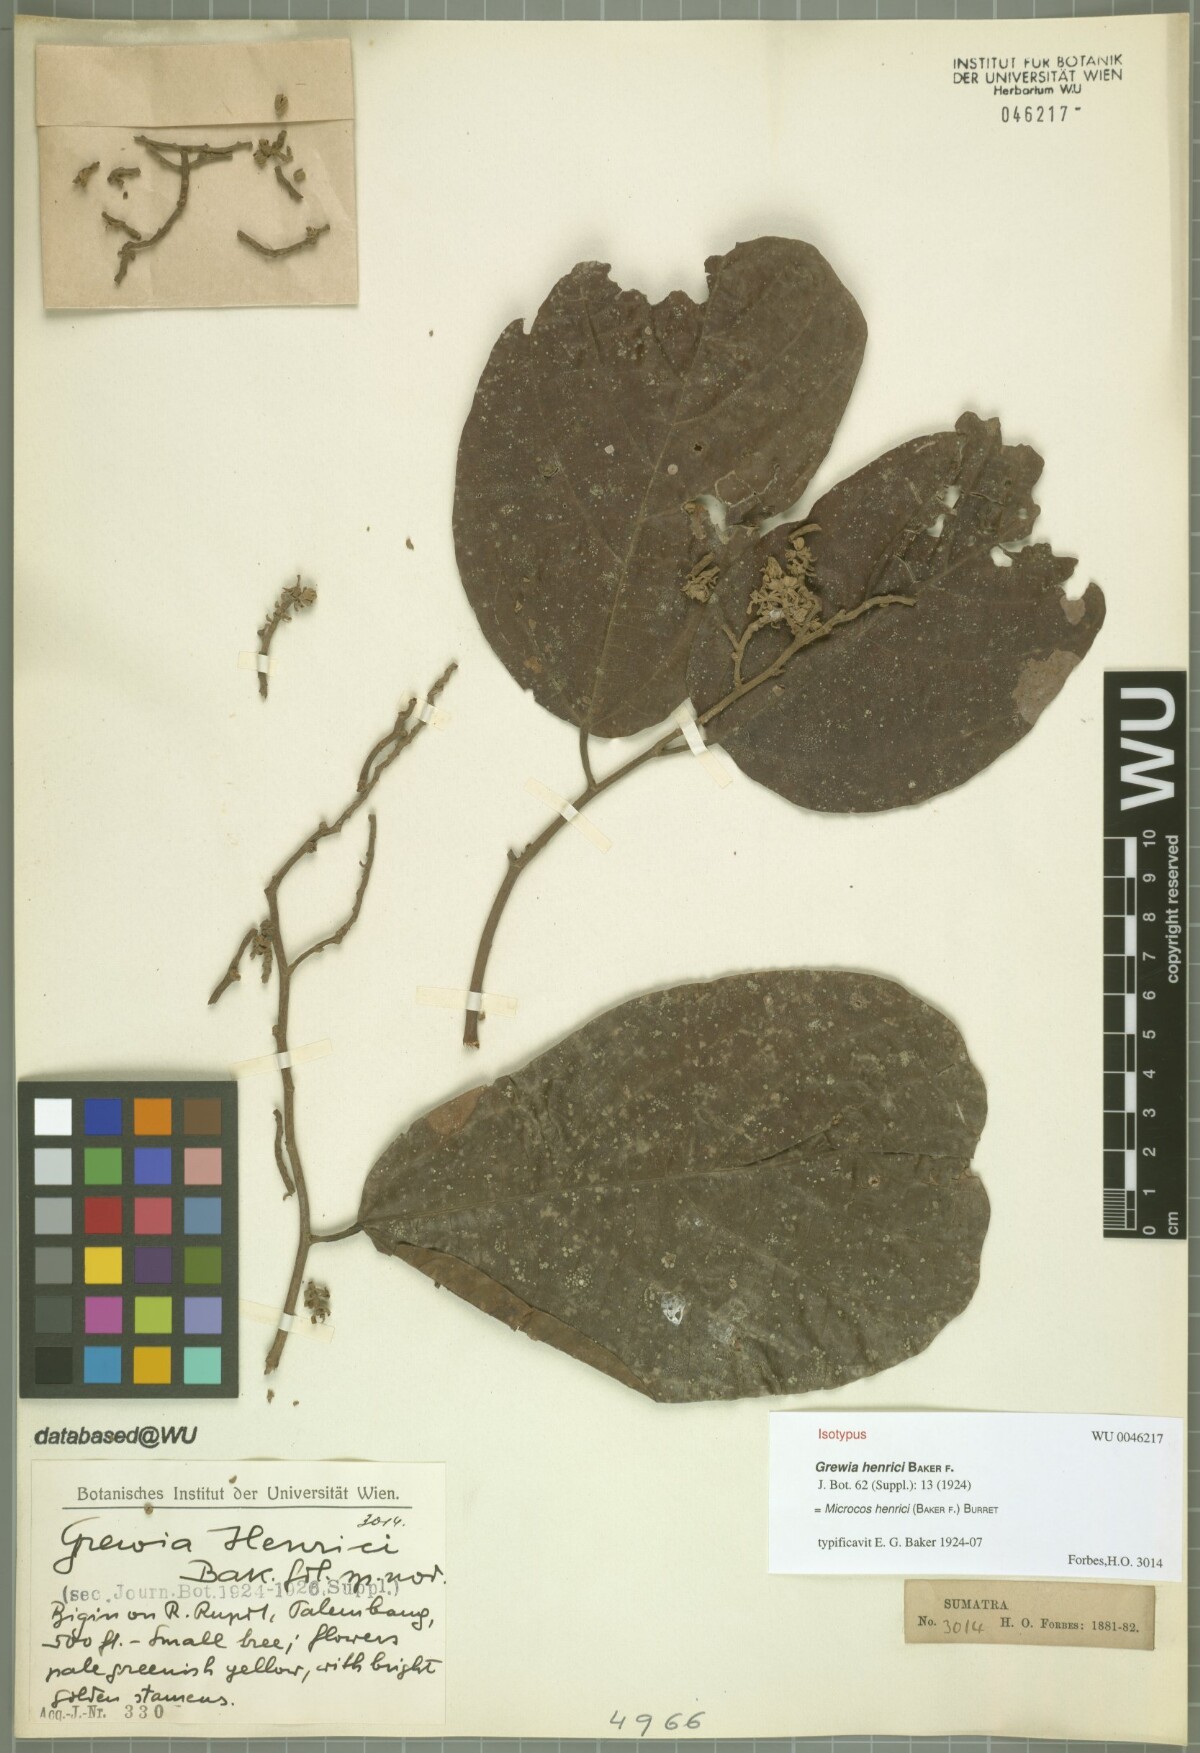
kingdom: Plantae
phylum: Tracheophyta
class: Magnoliopsida
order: Malvales
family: Malvaceae
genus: Microcos
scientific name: Microcos henrici
